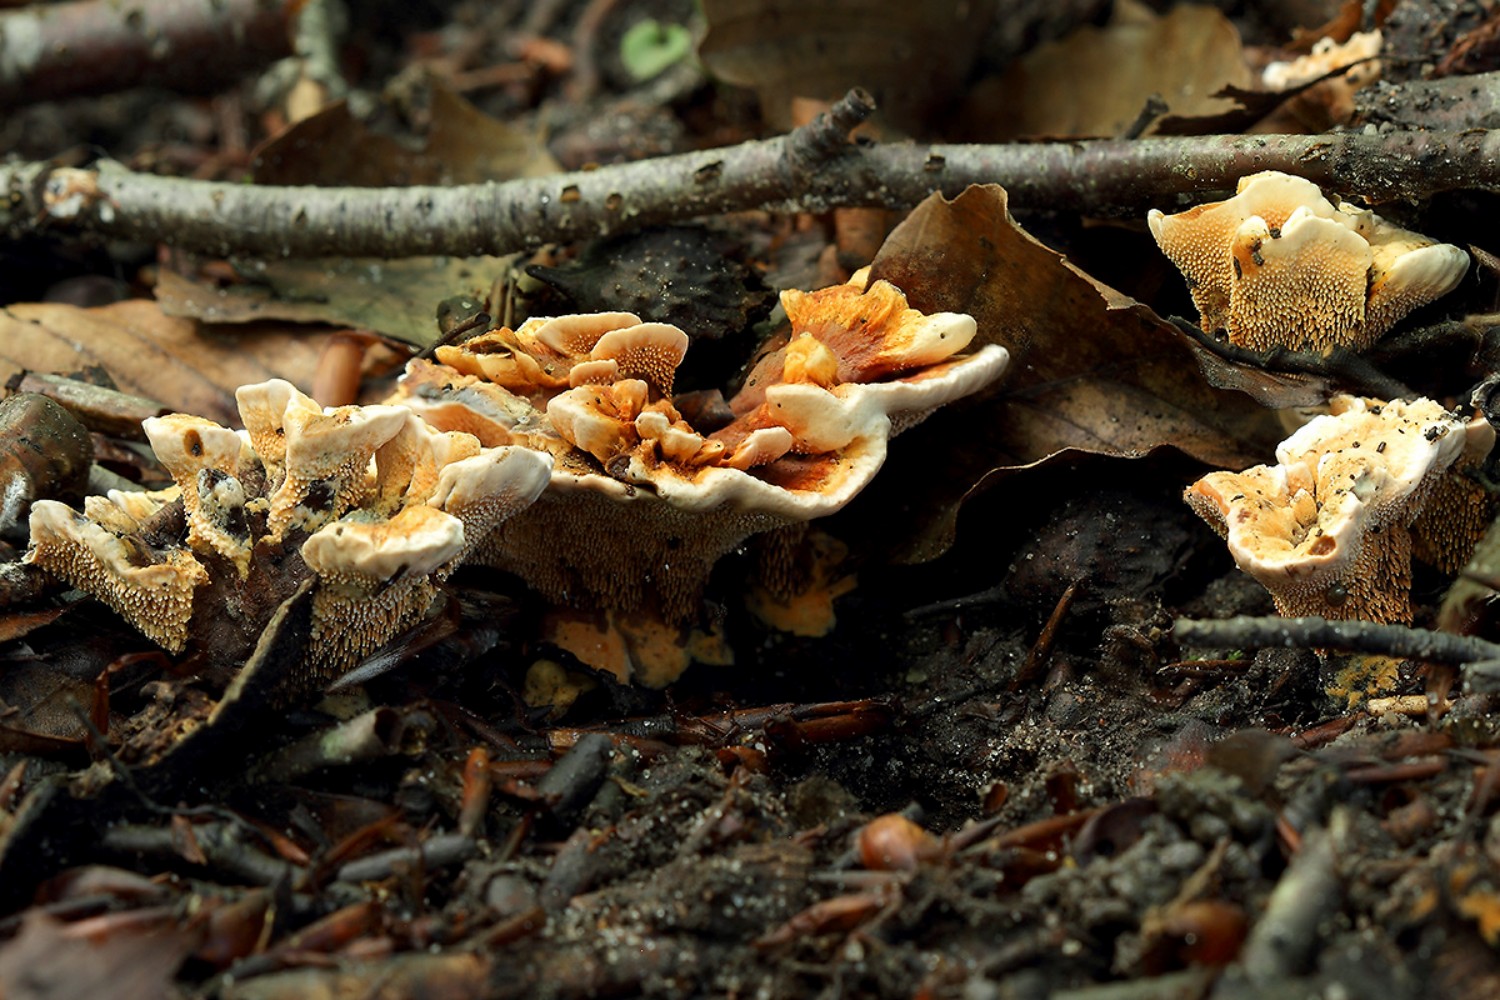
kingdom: Fungi
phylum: Basidiomycota
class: Agaricomycetes
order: Thelephorales
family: Bankeraceae
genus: Hydnellum
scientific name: Hydnellum auratile
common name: teglrød korkpigsvamp
